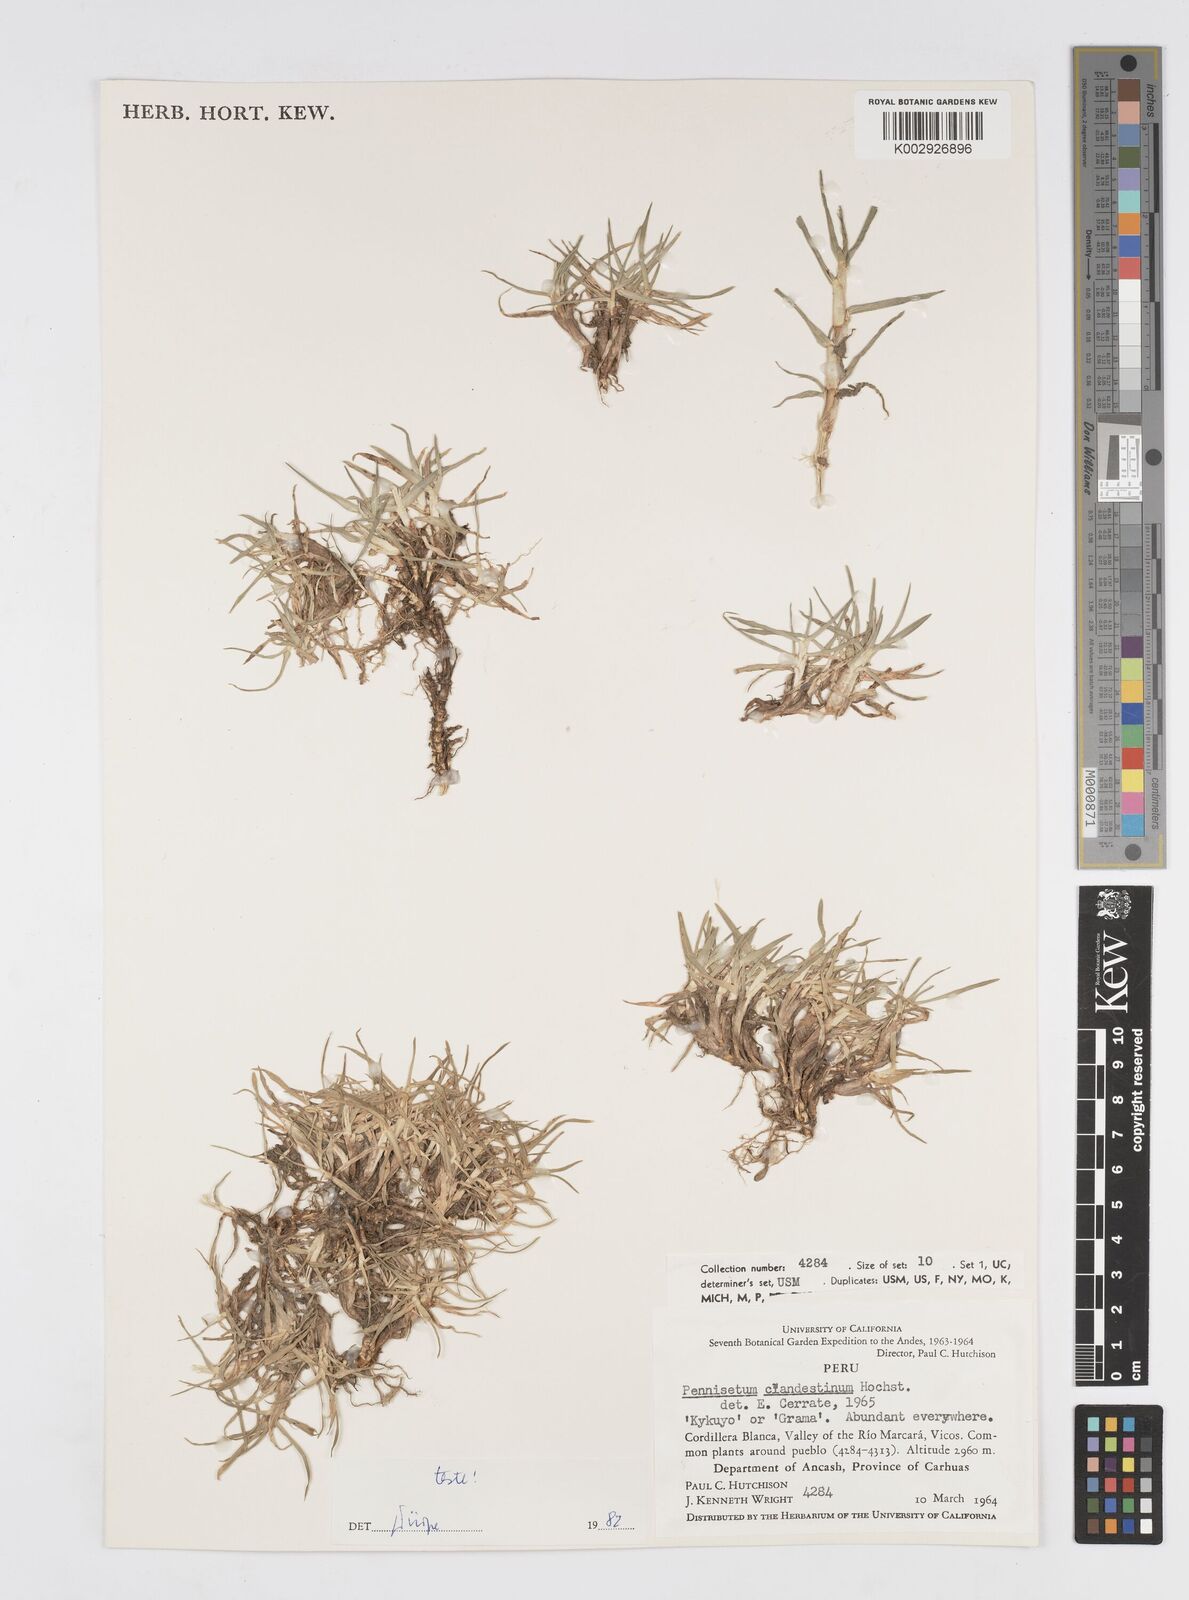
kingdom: Plantae
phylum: Tracheophyta
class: Liliopsida
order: Poales
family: Poaceae
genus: Cenchrus
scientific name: Cenchrus clandestinus
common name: Kikuyugrass
